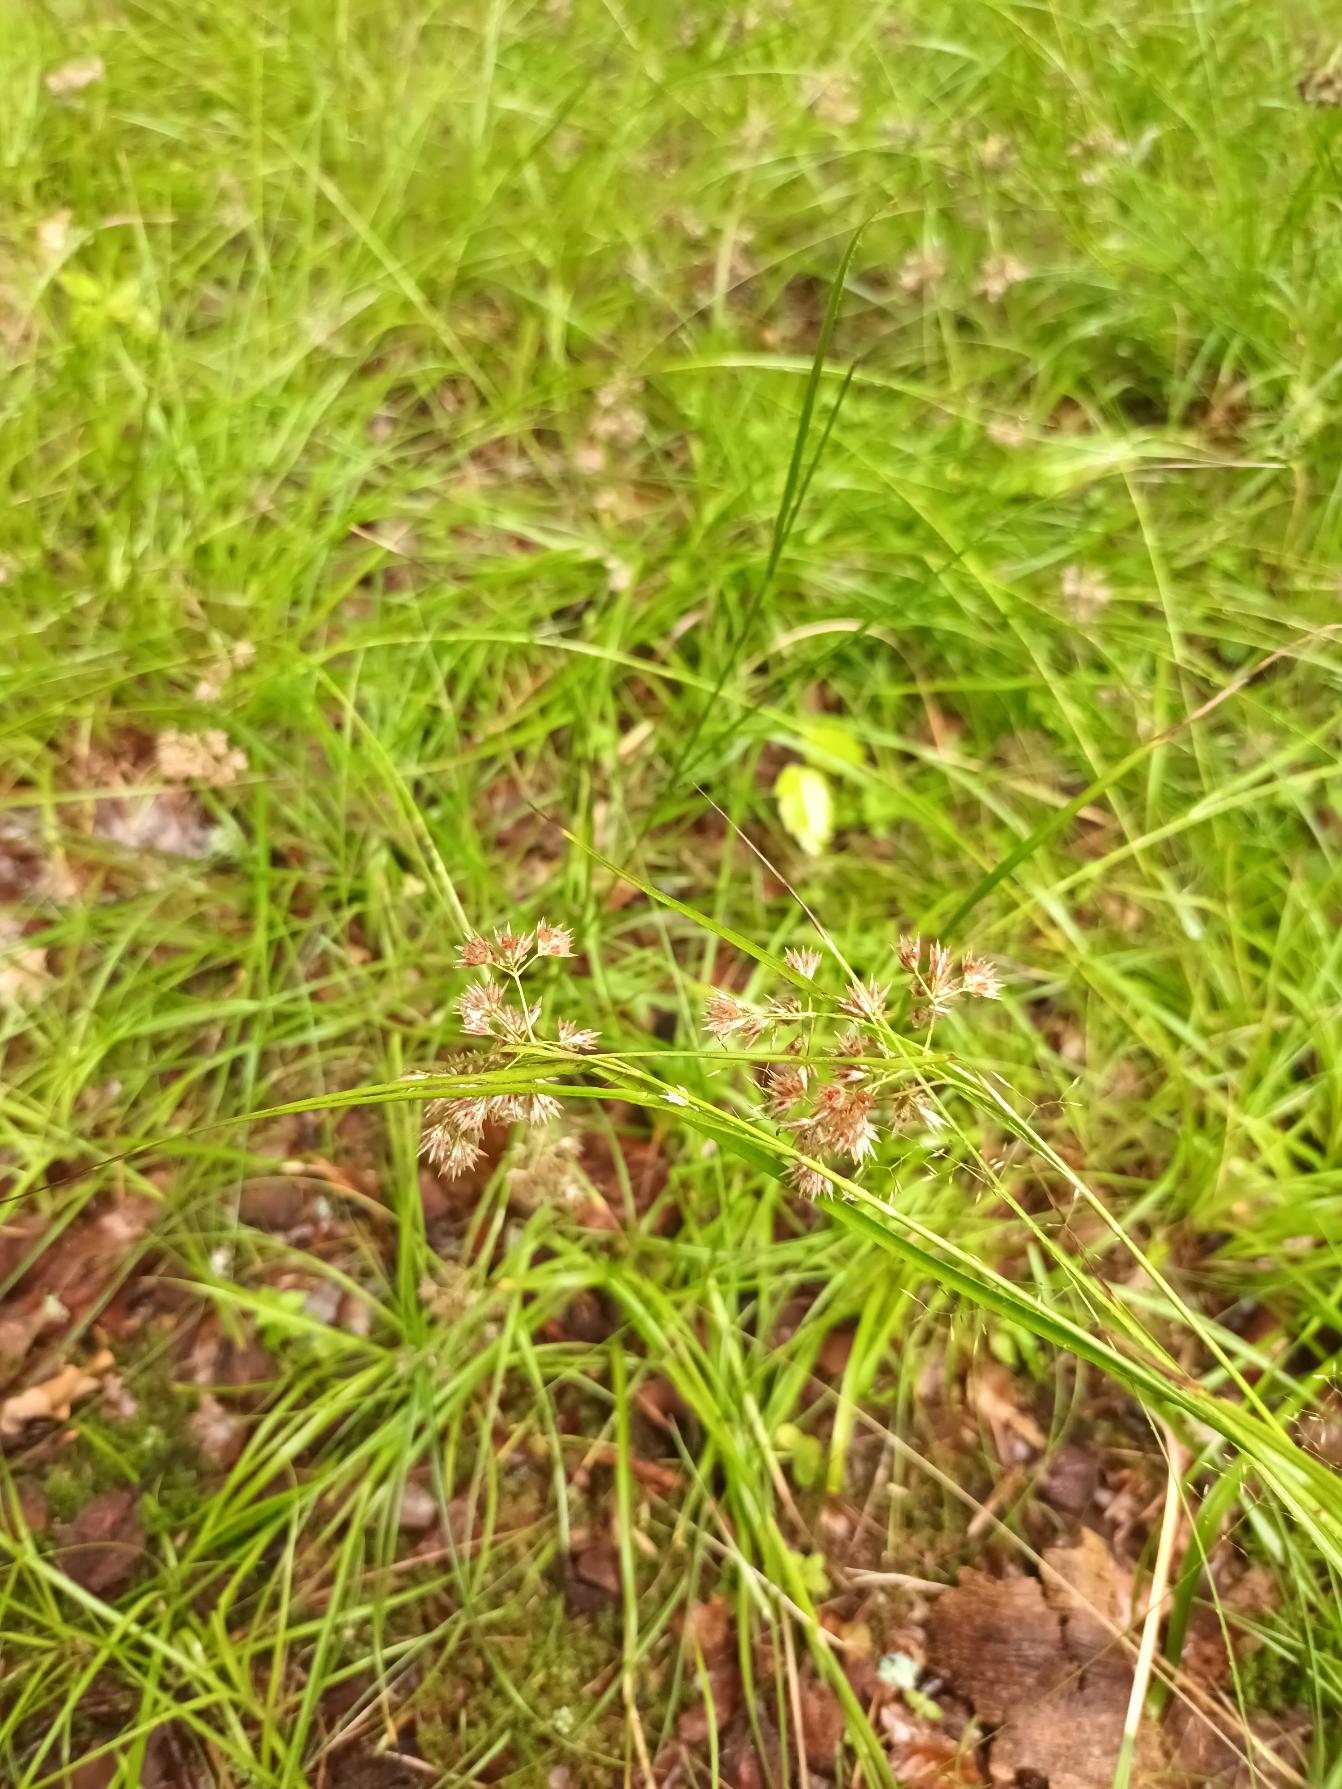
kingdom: Plantae
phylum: Tracheophyta
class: Liliopsida
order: Poales
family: Juncaceae
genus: Luzula
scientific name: Luzula nivea
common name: Snehvid frytle
